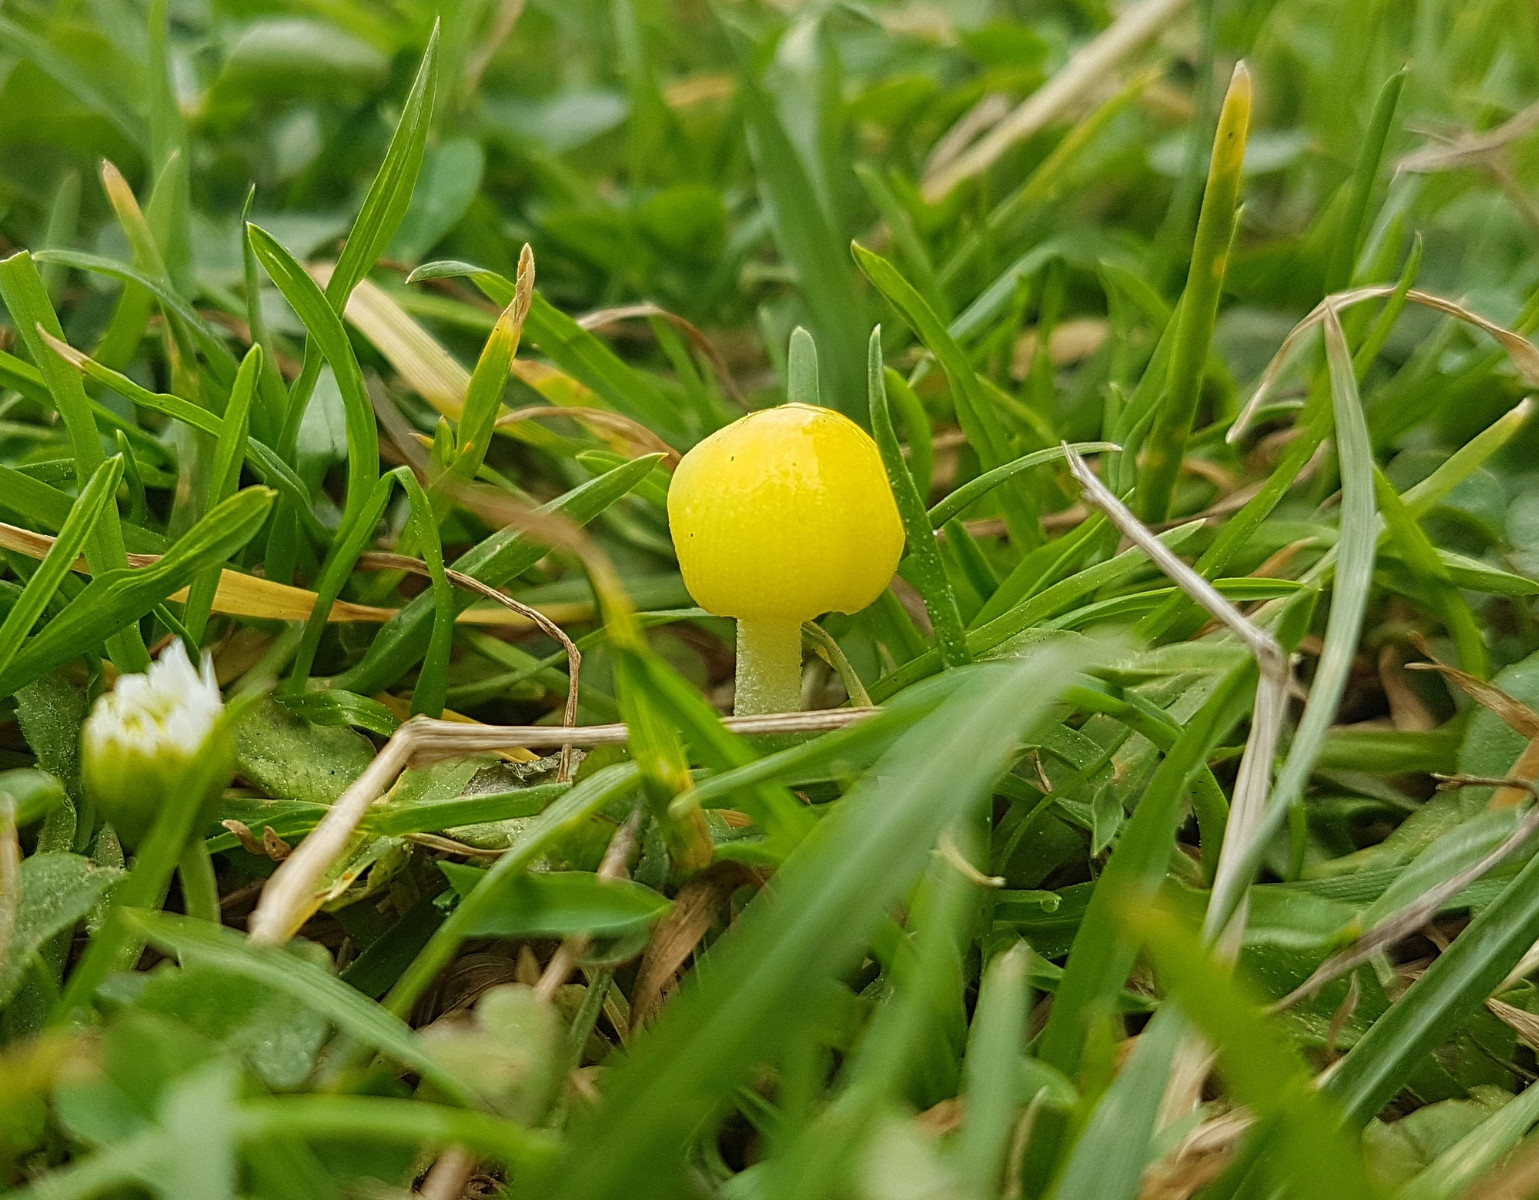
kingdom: Fungi
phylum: Basidiomycota
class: Agaricomycetes
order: Agaricales
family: Bolbitiaceae
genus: Bolbitius
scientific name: Bolbitius titubans
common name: almindelig gulhat
